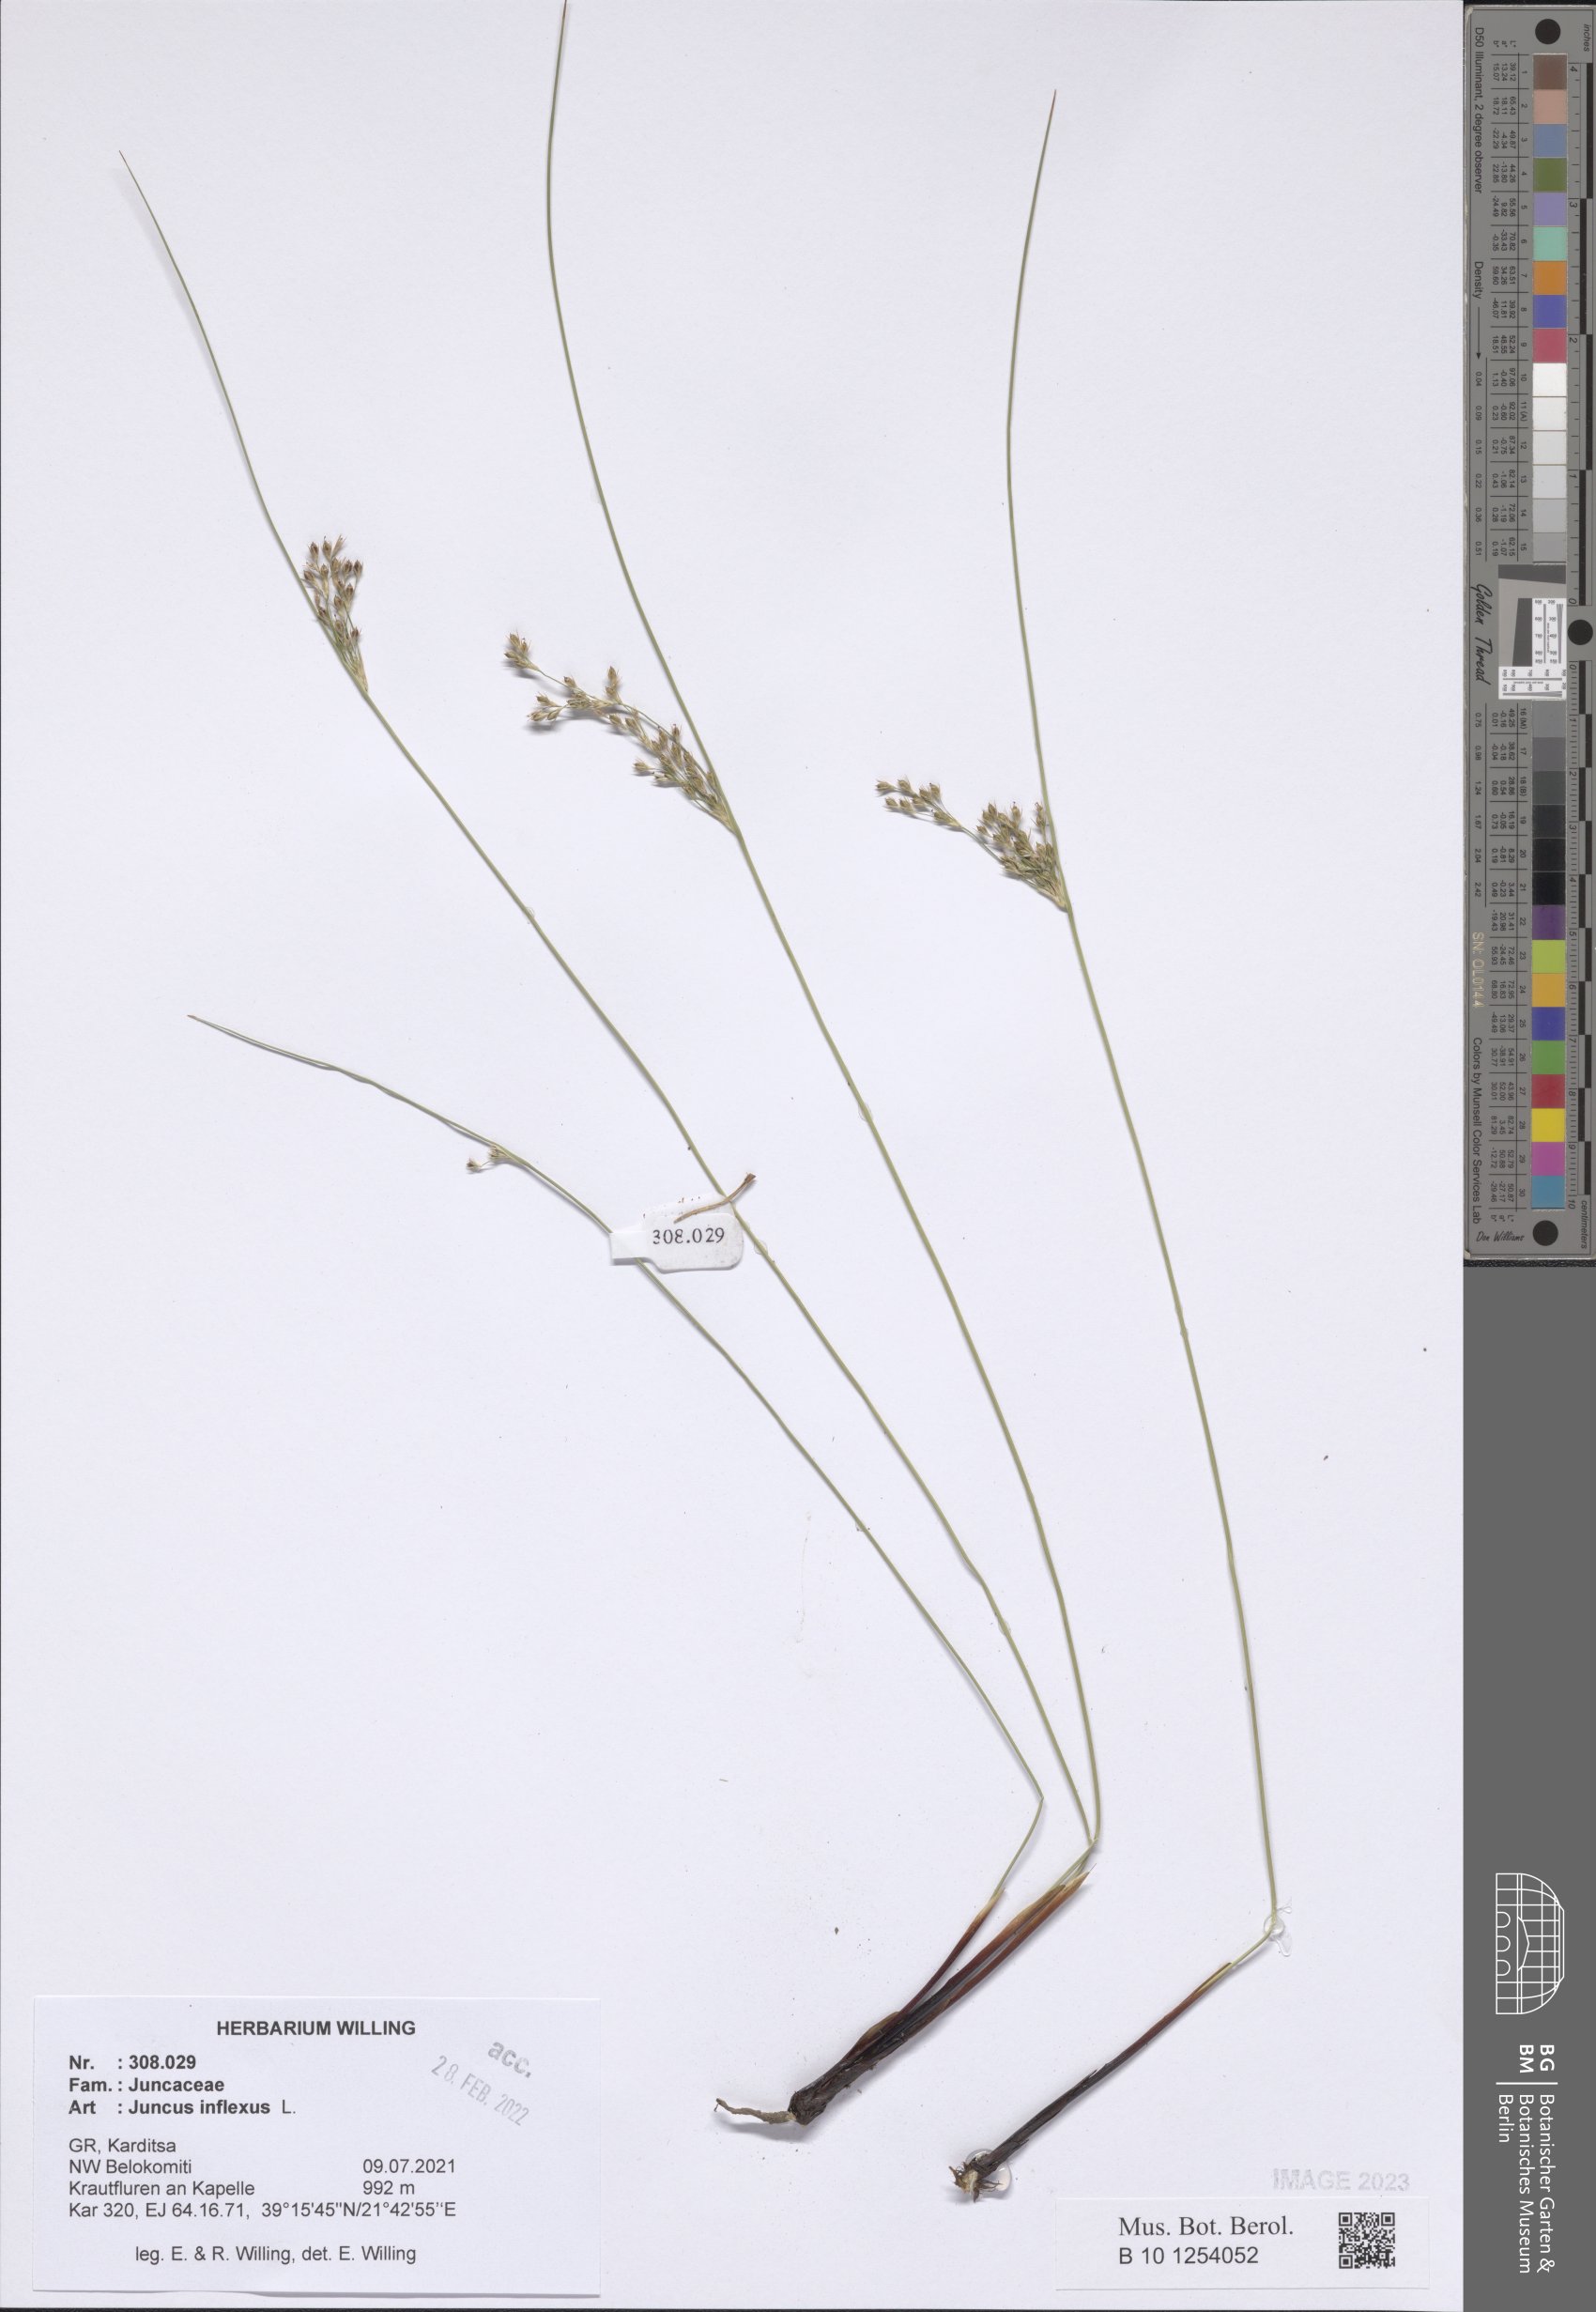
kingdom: Plantae
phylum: Tracheophyta
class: Liliopsida
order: Poales
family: Juncaceae
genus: Juncus
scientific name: Juncus inflexus
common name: Hard rush
